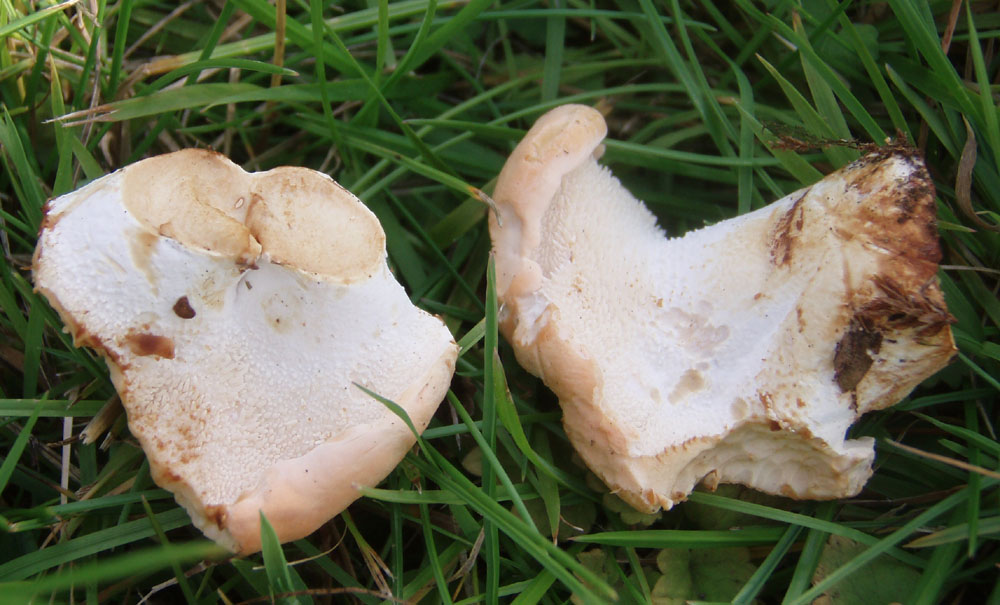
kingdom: Fungi
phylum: Basidiomycota
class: Agaricomycetes
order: Cantharellales
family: Hydnaceae
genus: Hydnum
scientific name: Hydnum repandum
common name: almindelig pigsvamp
